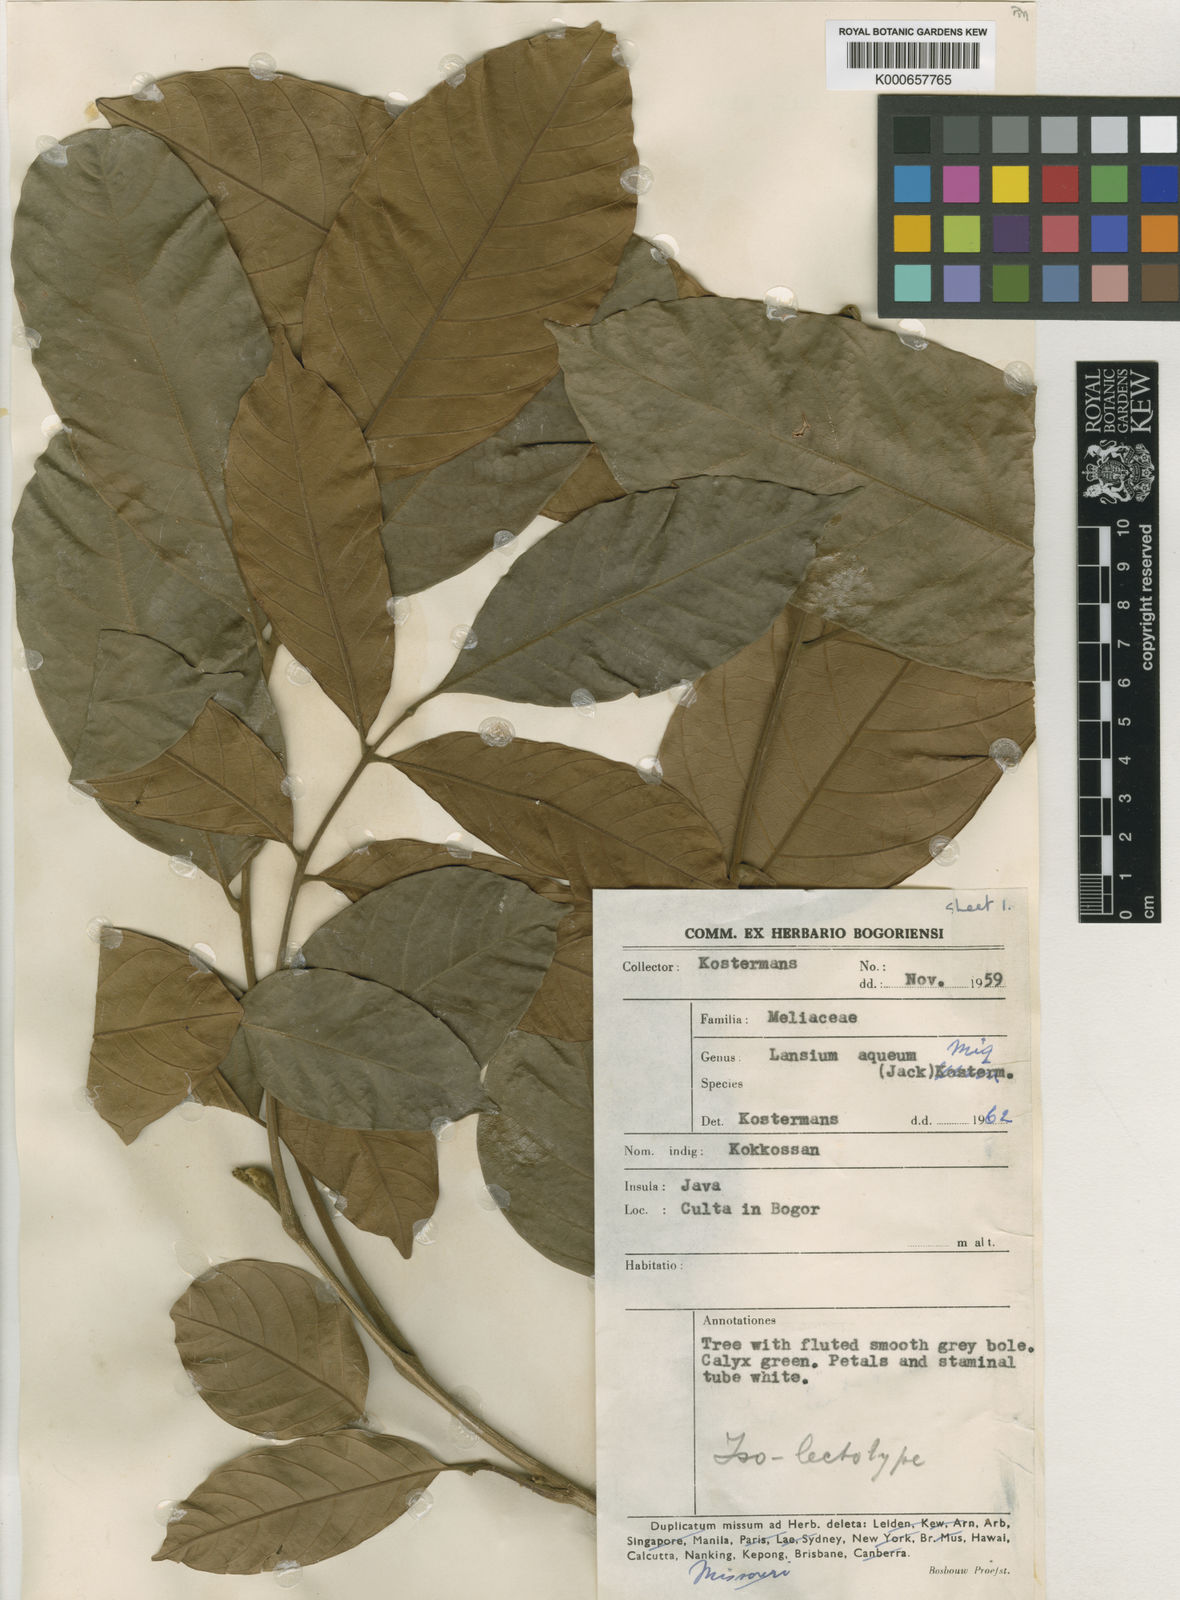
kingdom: Plantae
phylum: Tracheophyta
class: Magnoliopsida
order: Sapindales
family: Meliaceae
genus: Lansium
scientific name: Lansium
